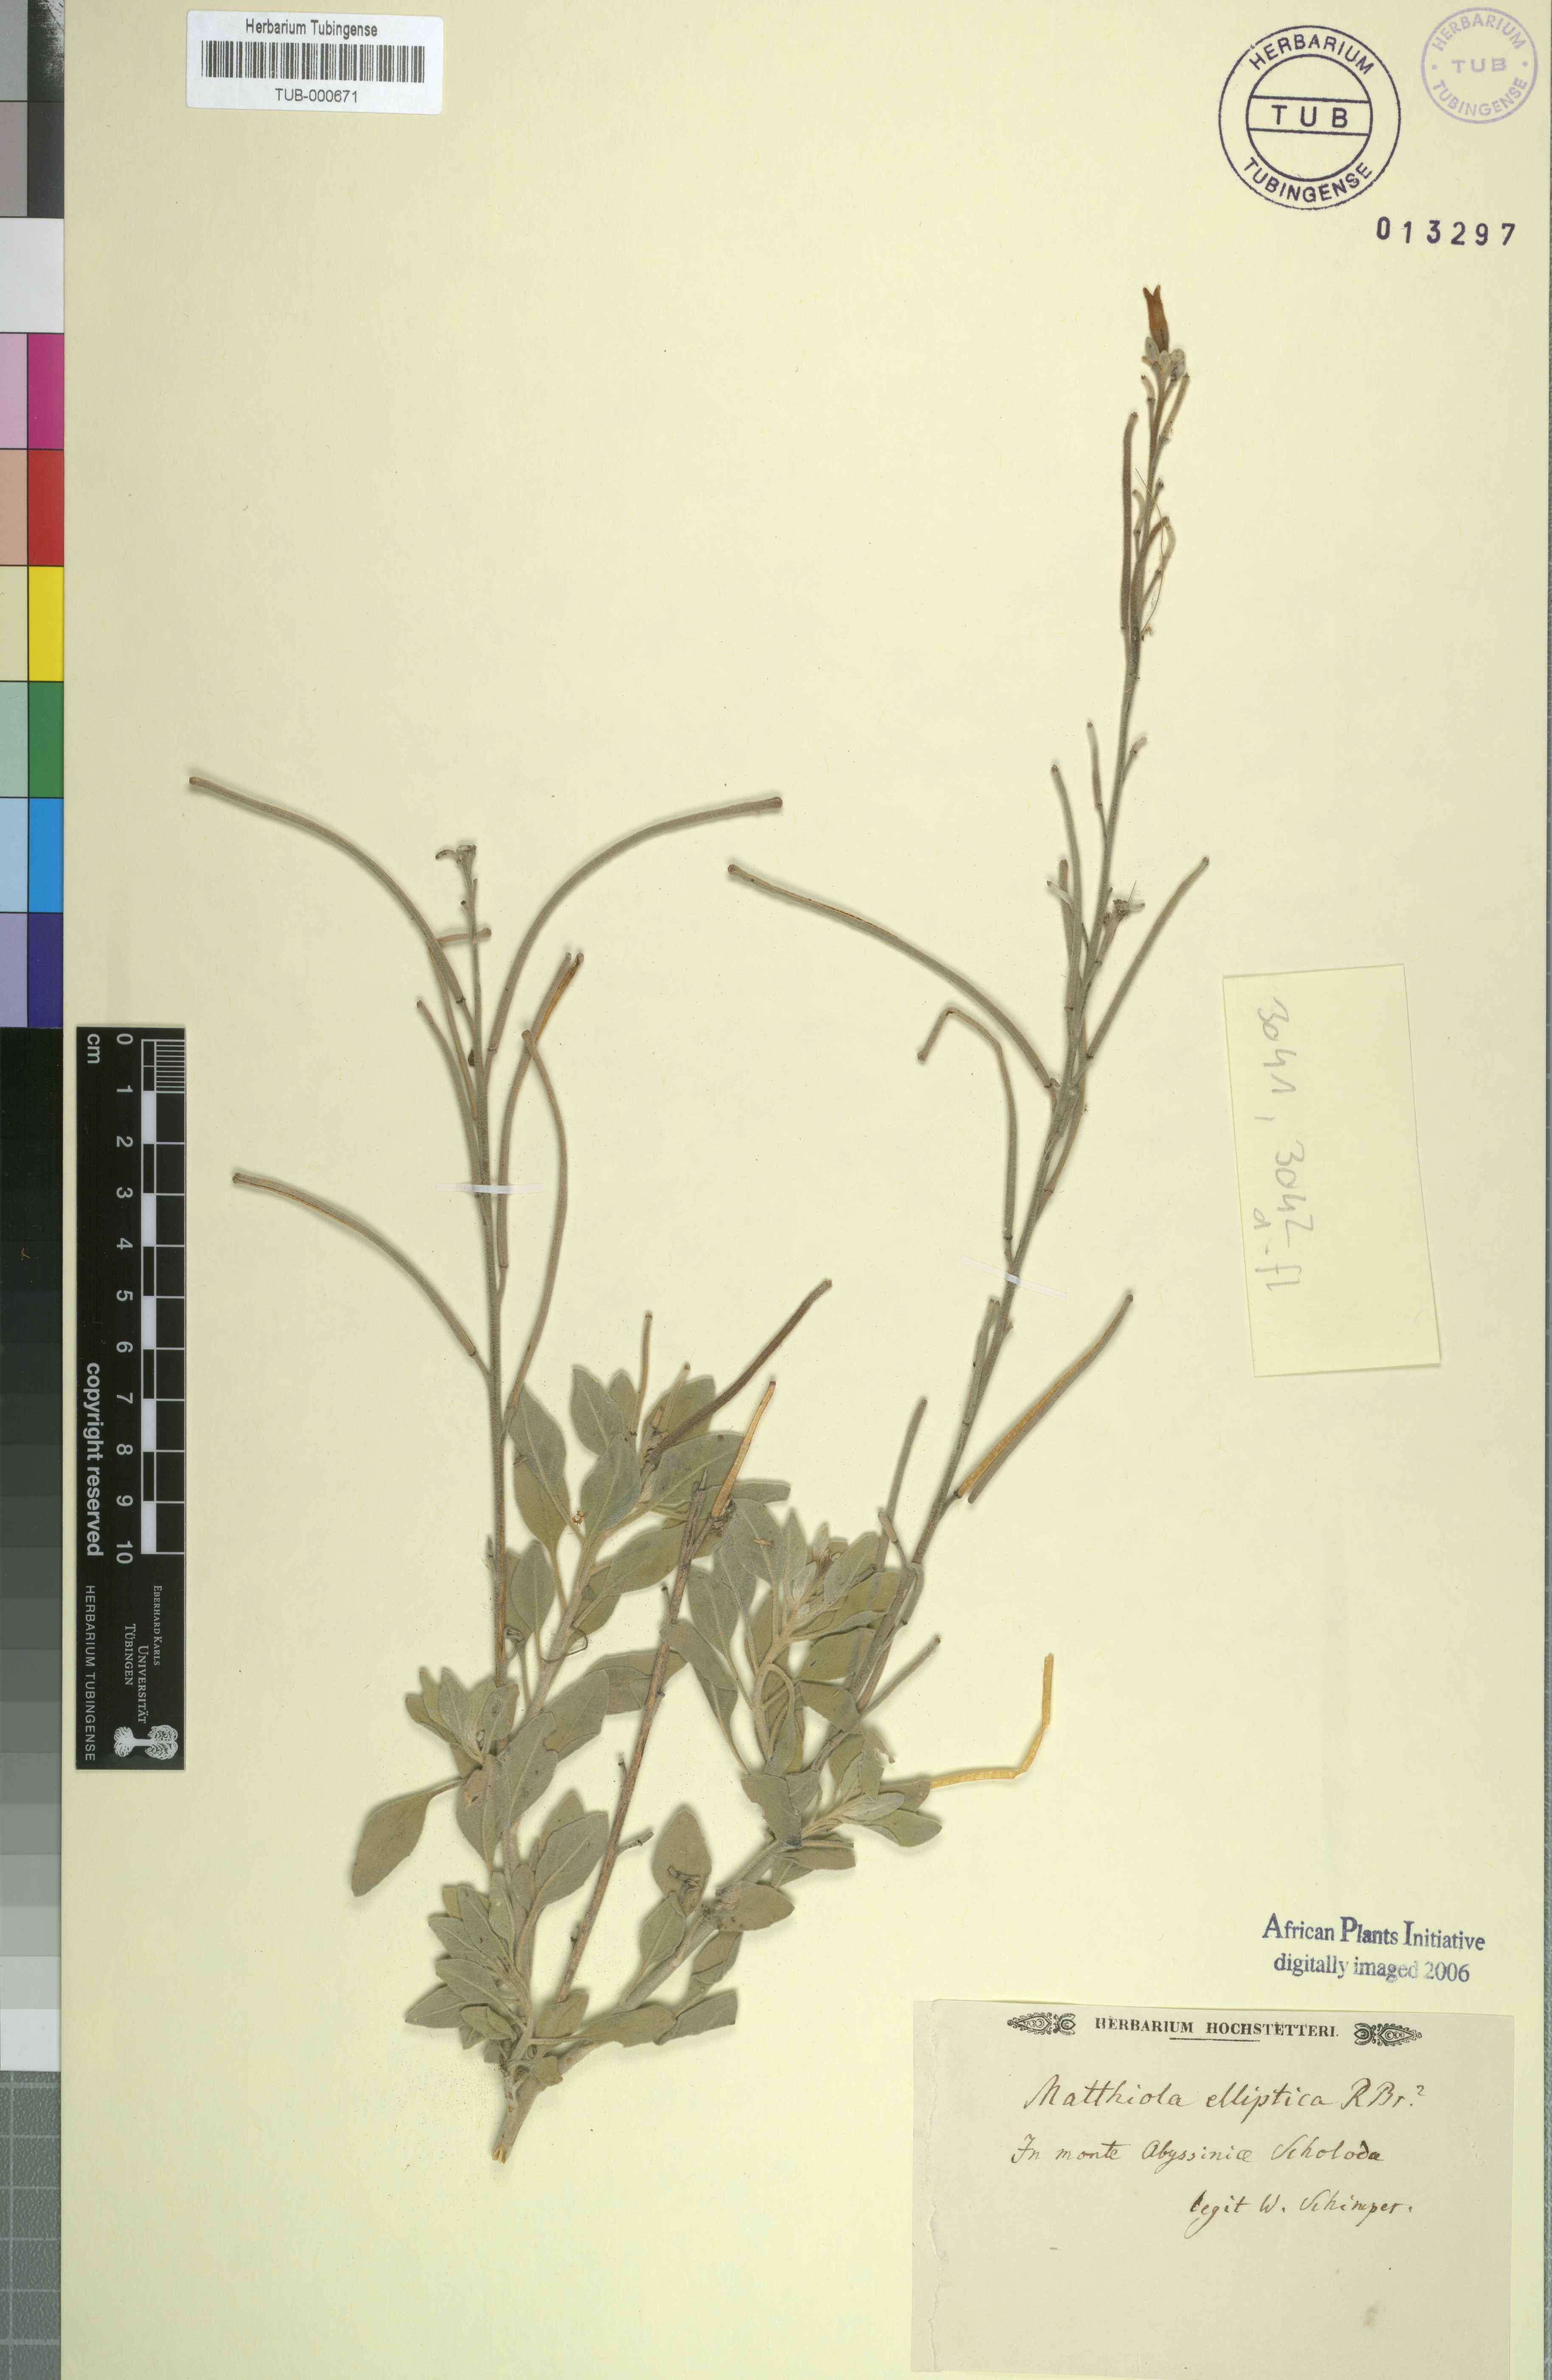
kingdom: Plantae
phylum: Tracheophyta
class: Magnoliopsida
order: Brassicales
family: Brassicaceae
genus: Diceratella
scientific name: Diceratella elliptica
